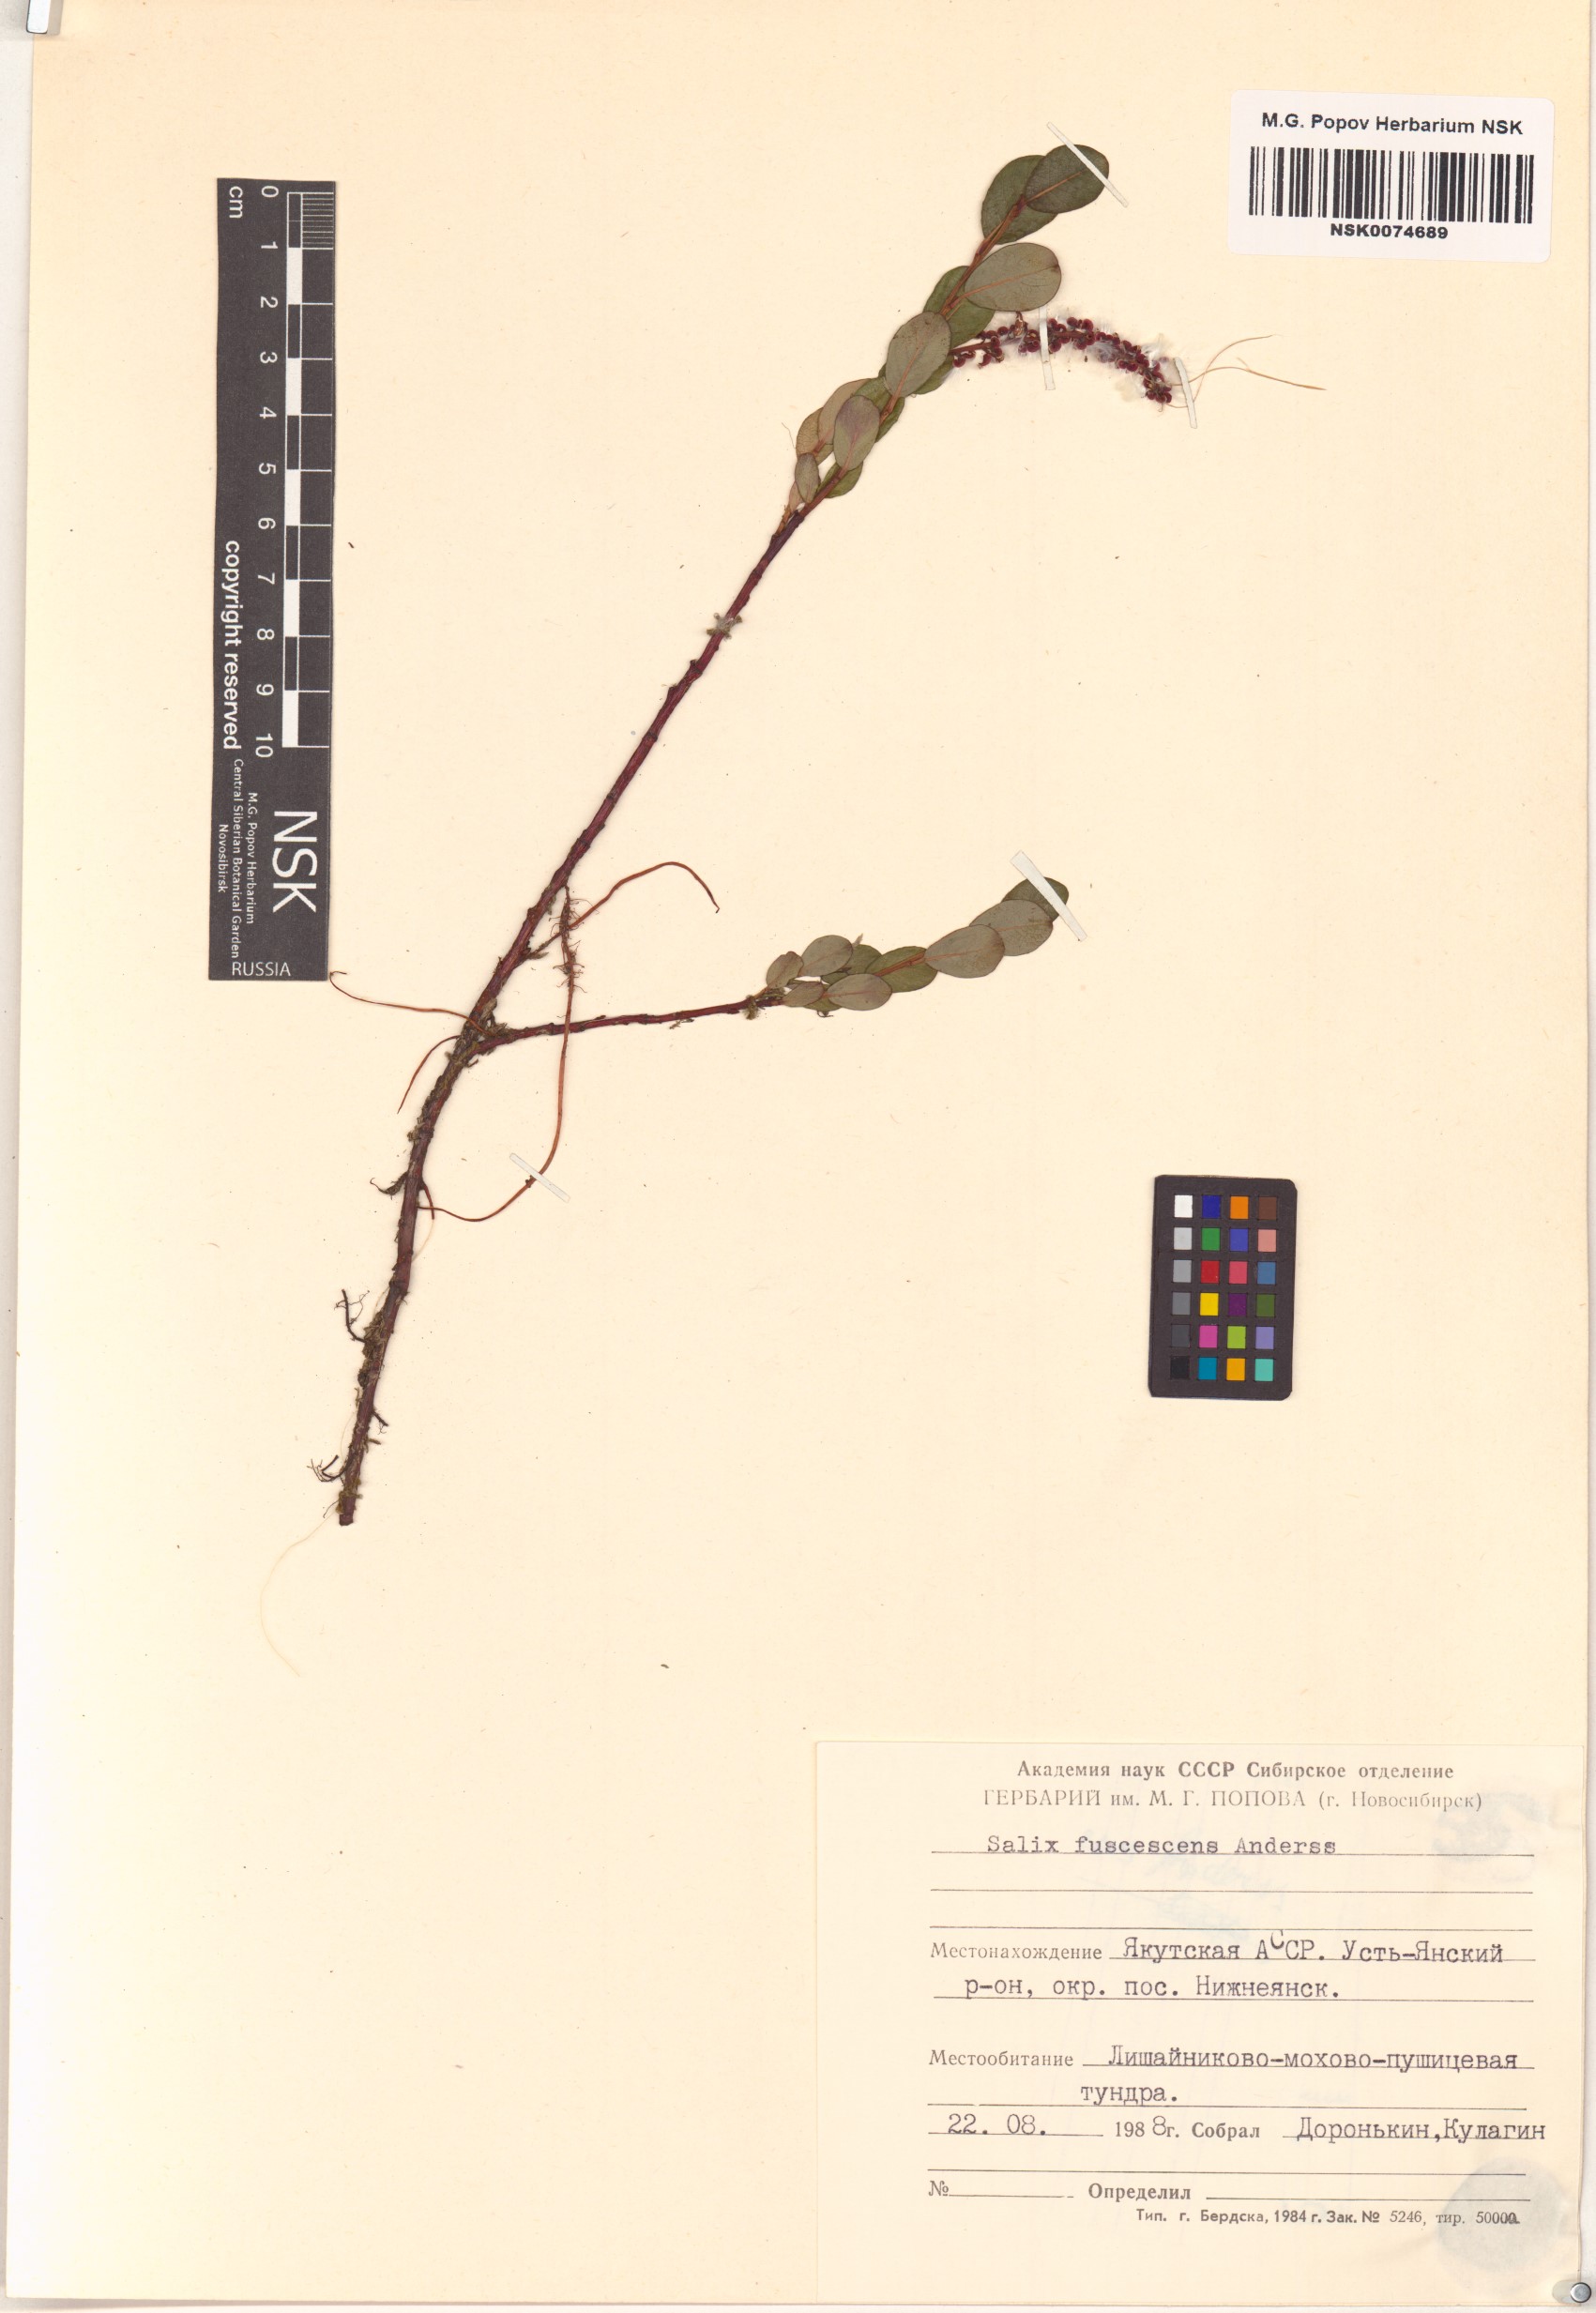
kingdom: Plantae
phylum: Tracheophyta
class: Magnoliopsida
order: Malpighiales
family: Salicaceae
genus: Salix
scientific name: Salix fuscescens
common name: Brownish willow
